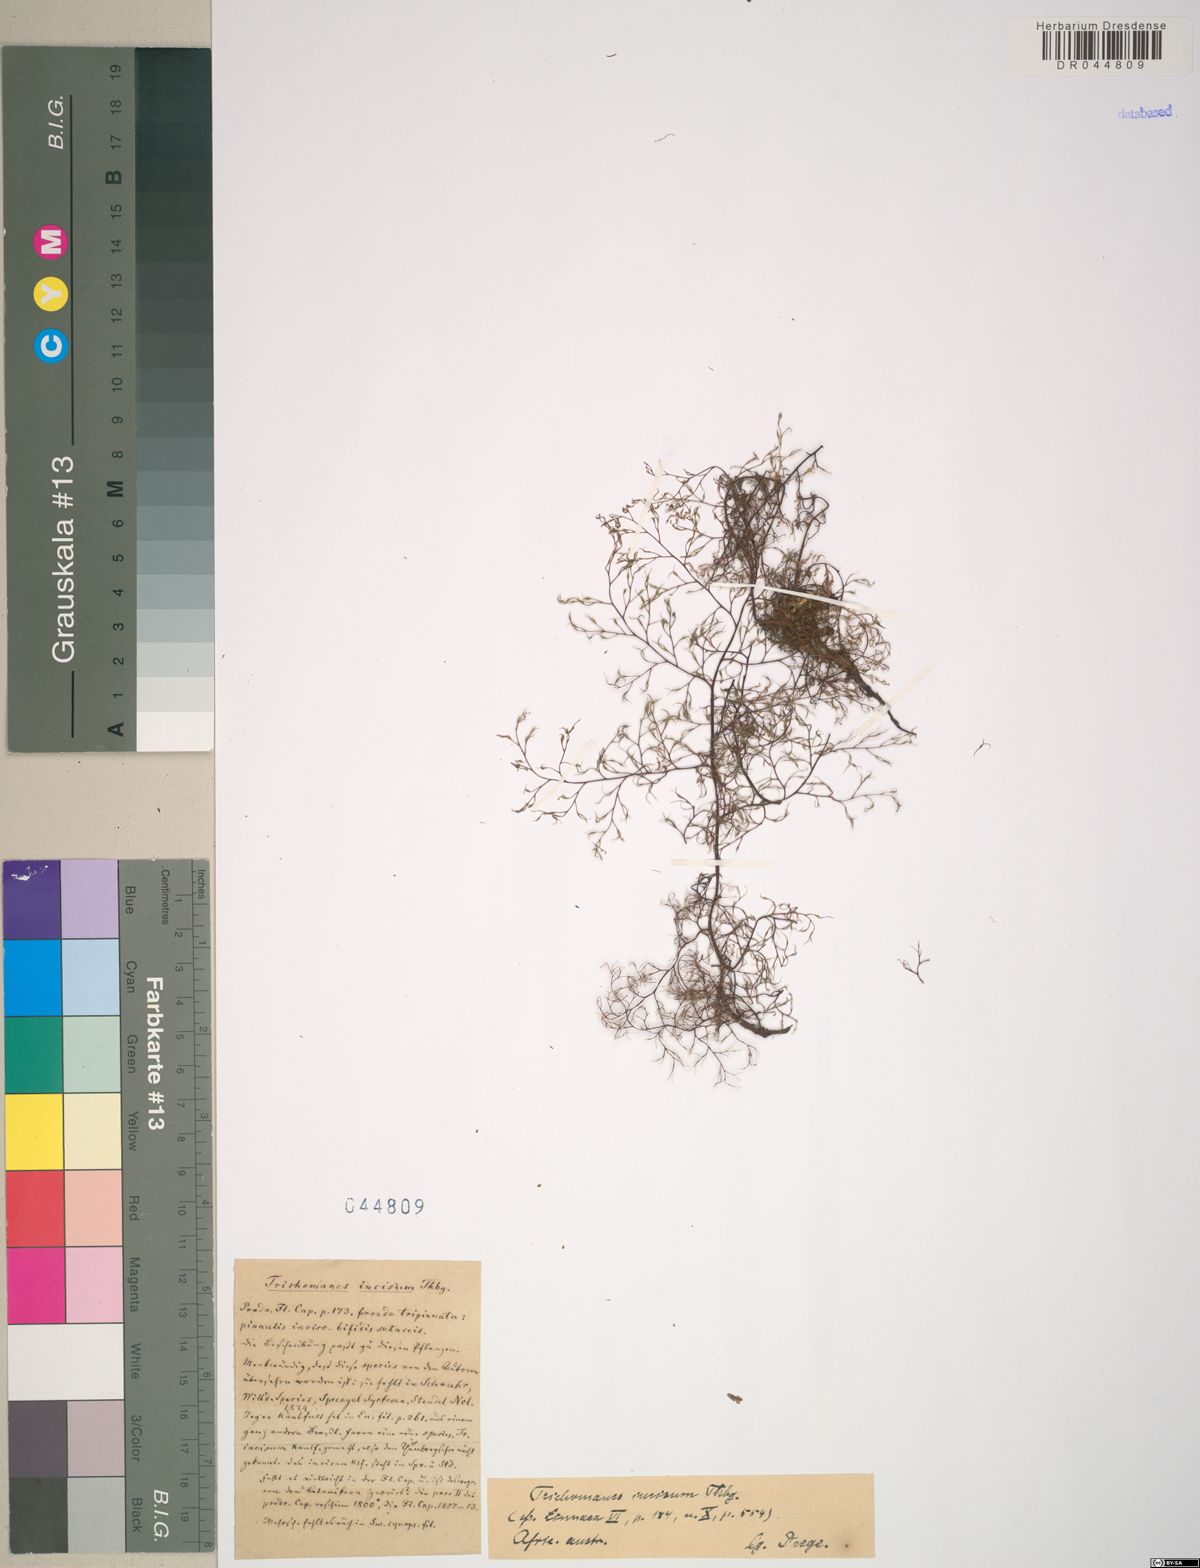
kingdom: Plantae
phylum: Tracheophyta
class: Polypodiopsida
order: Hymenophyllales
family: Hymenophyllaceae
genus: Trichomanes
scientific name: Trichomanes
